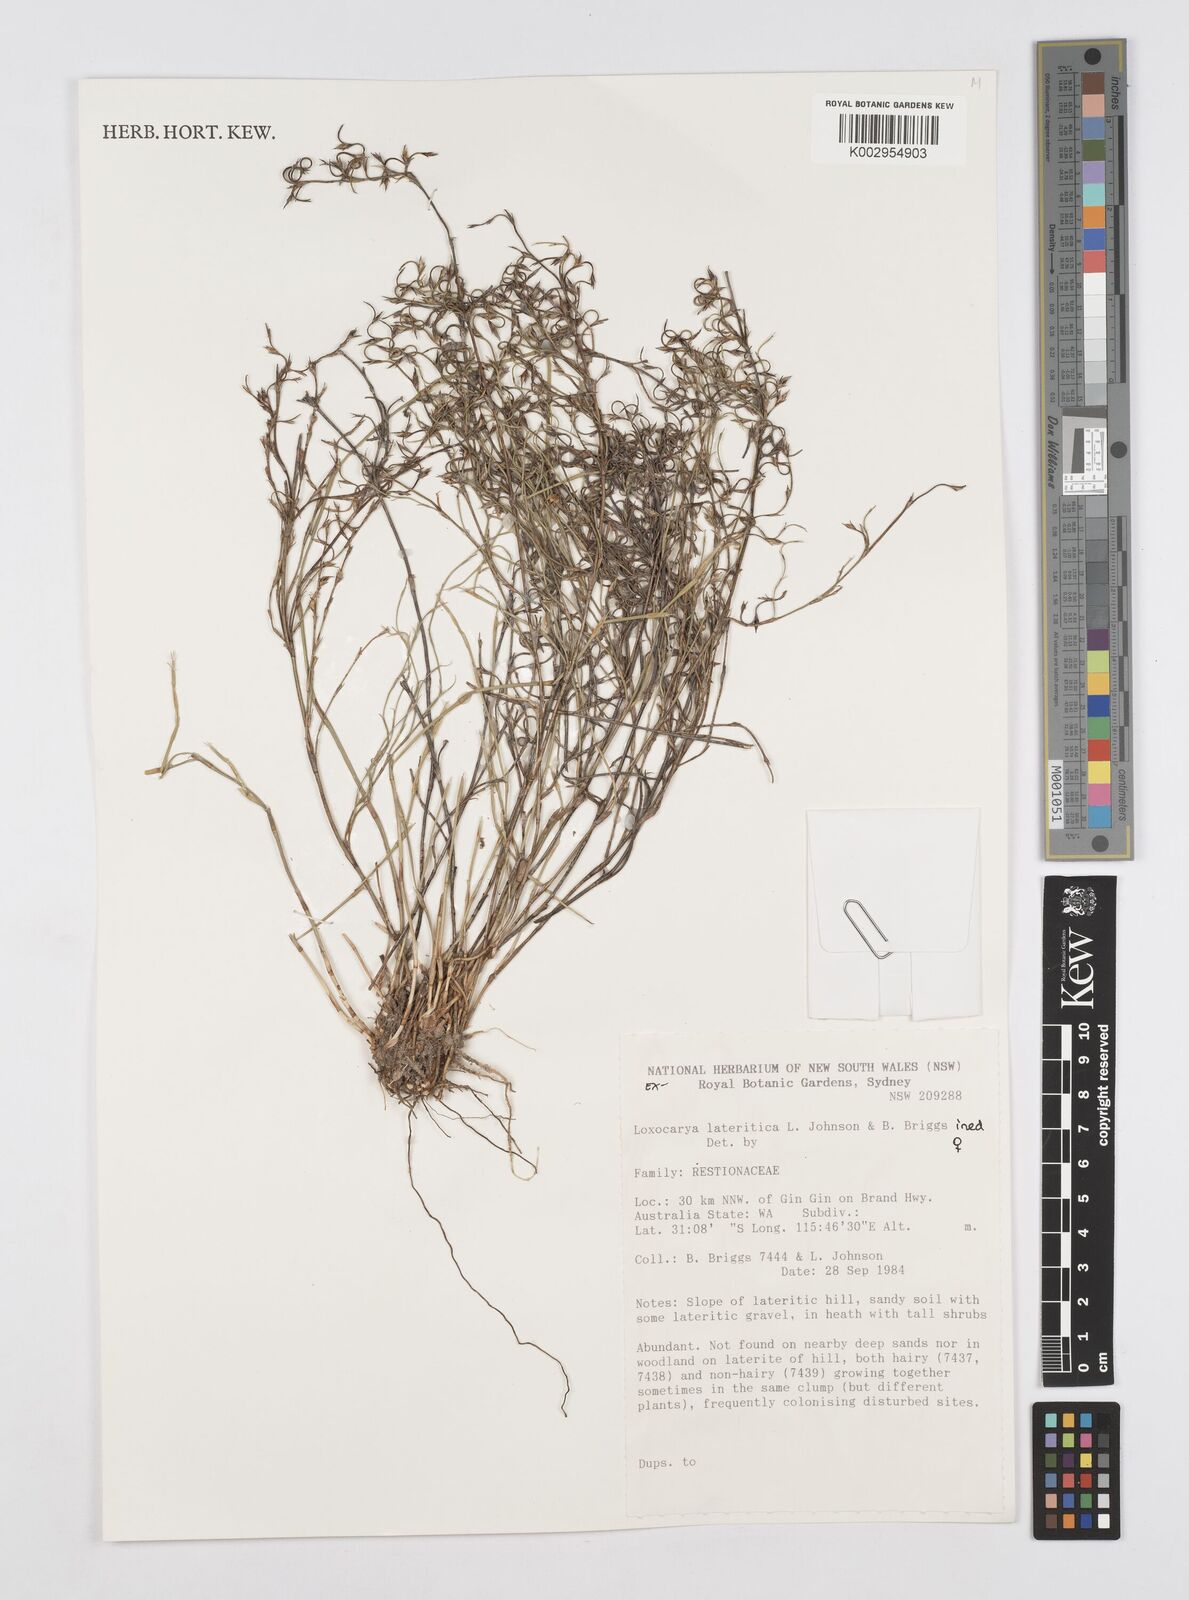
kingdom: Plantae
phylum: Tracheophyta
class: Liliopsida
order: Poales
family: Restionaceae
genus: Desmocladus
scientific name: Desmocladus lateriticus
